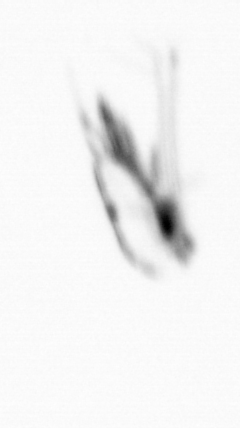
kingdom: Animalia
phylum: Arthropoda
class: Copepoda
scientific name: Copepoda
